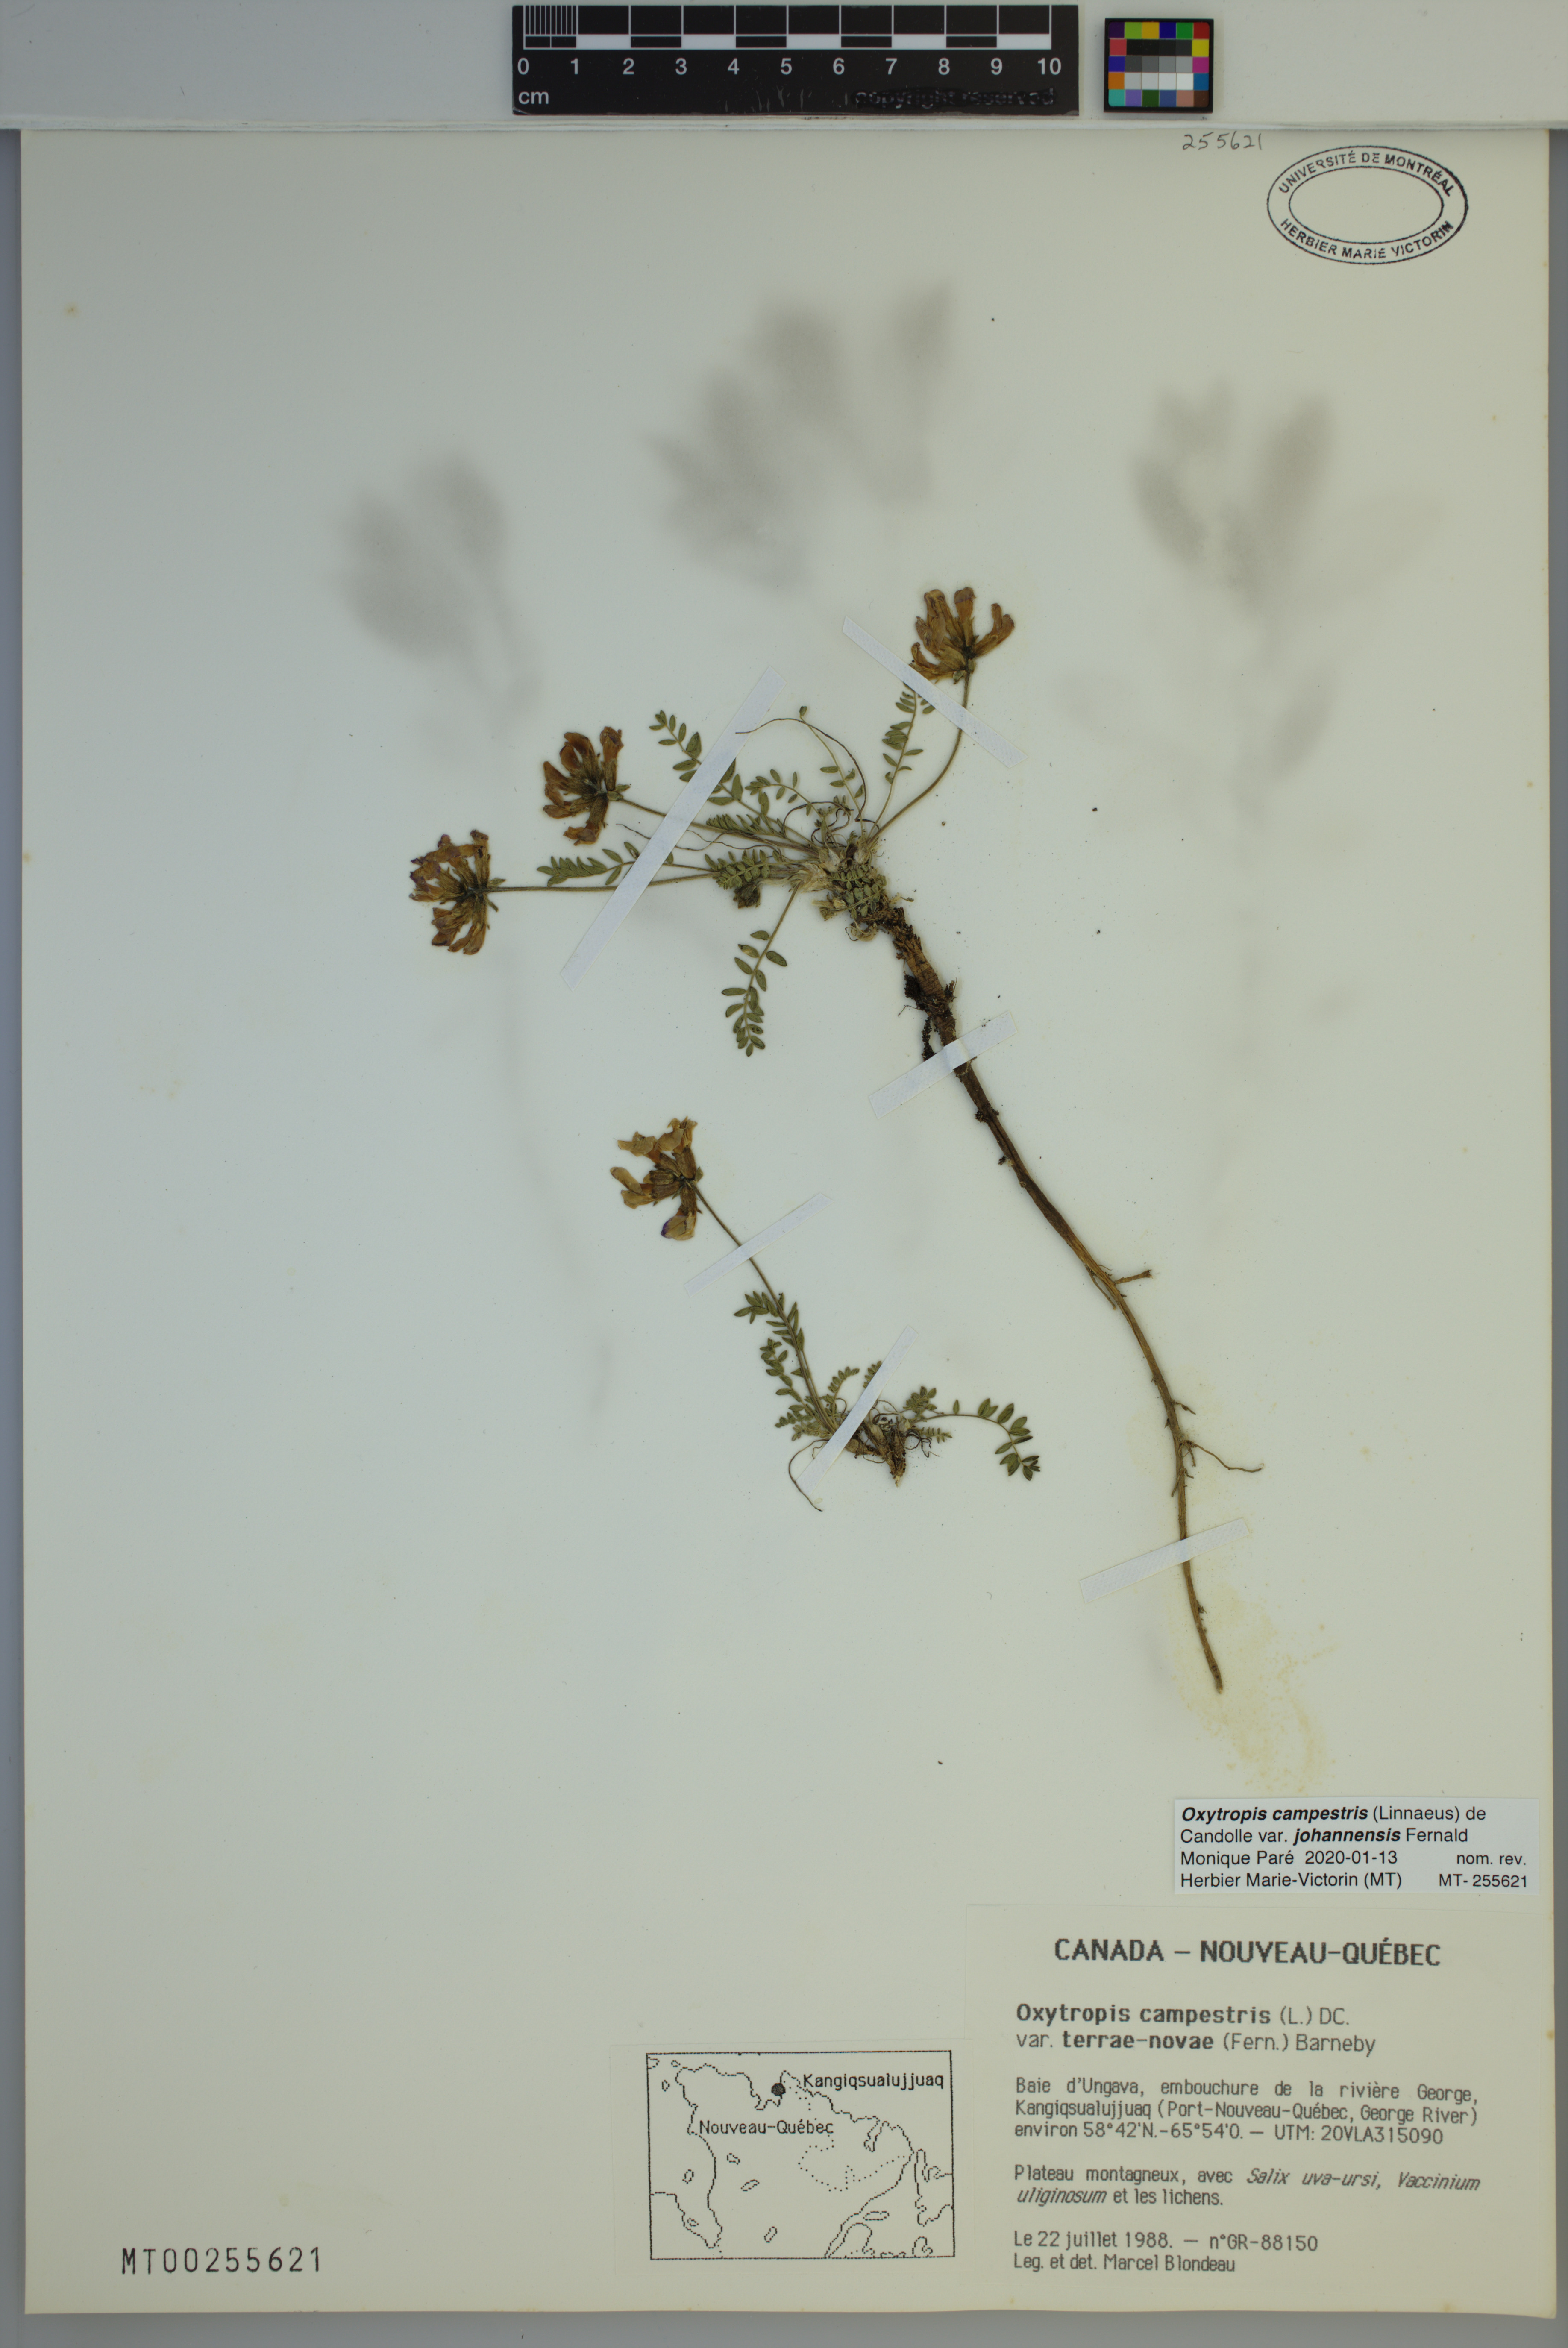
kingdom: Plantae
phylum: Tracheophyta
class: Magnoliopsida
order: Fabales
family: Fabaceae
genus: Oxytropis
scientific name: Oxytropis campestris
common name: Field locoweed
